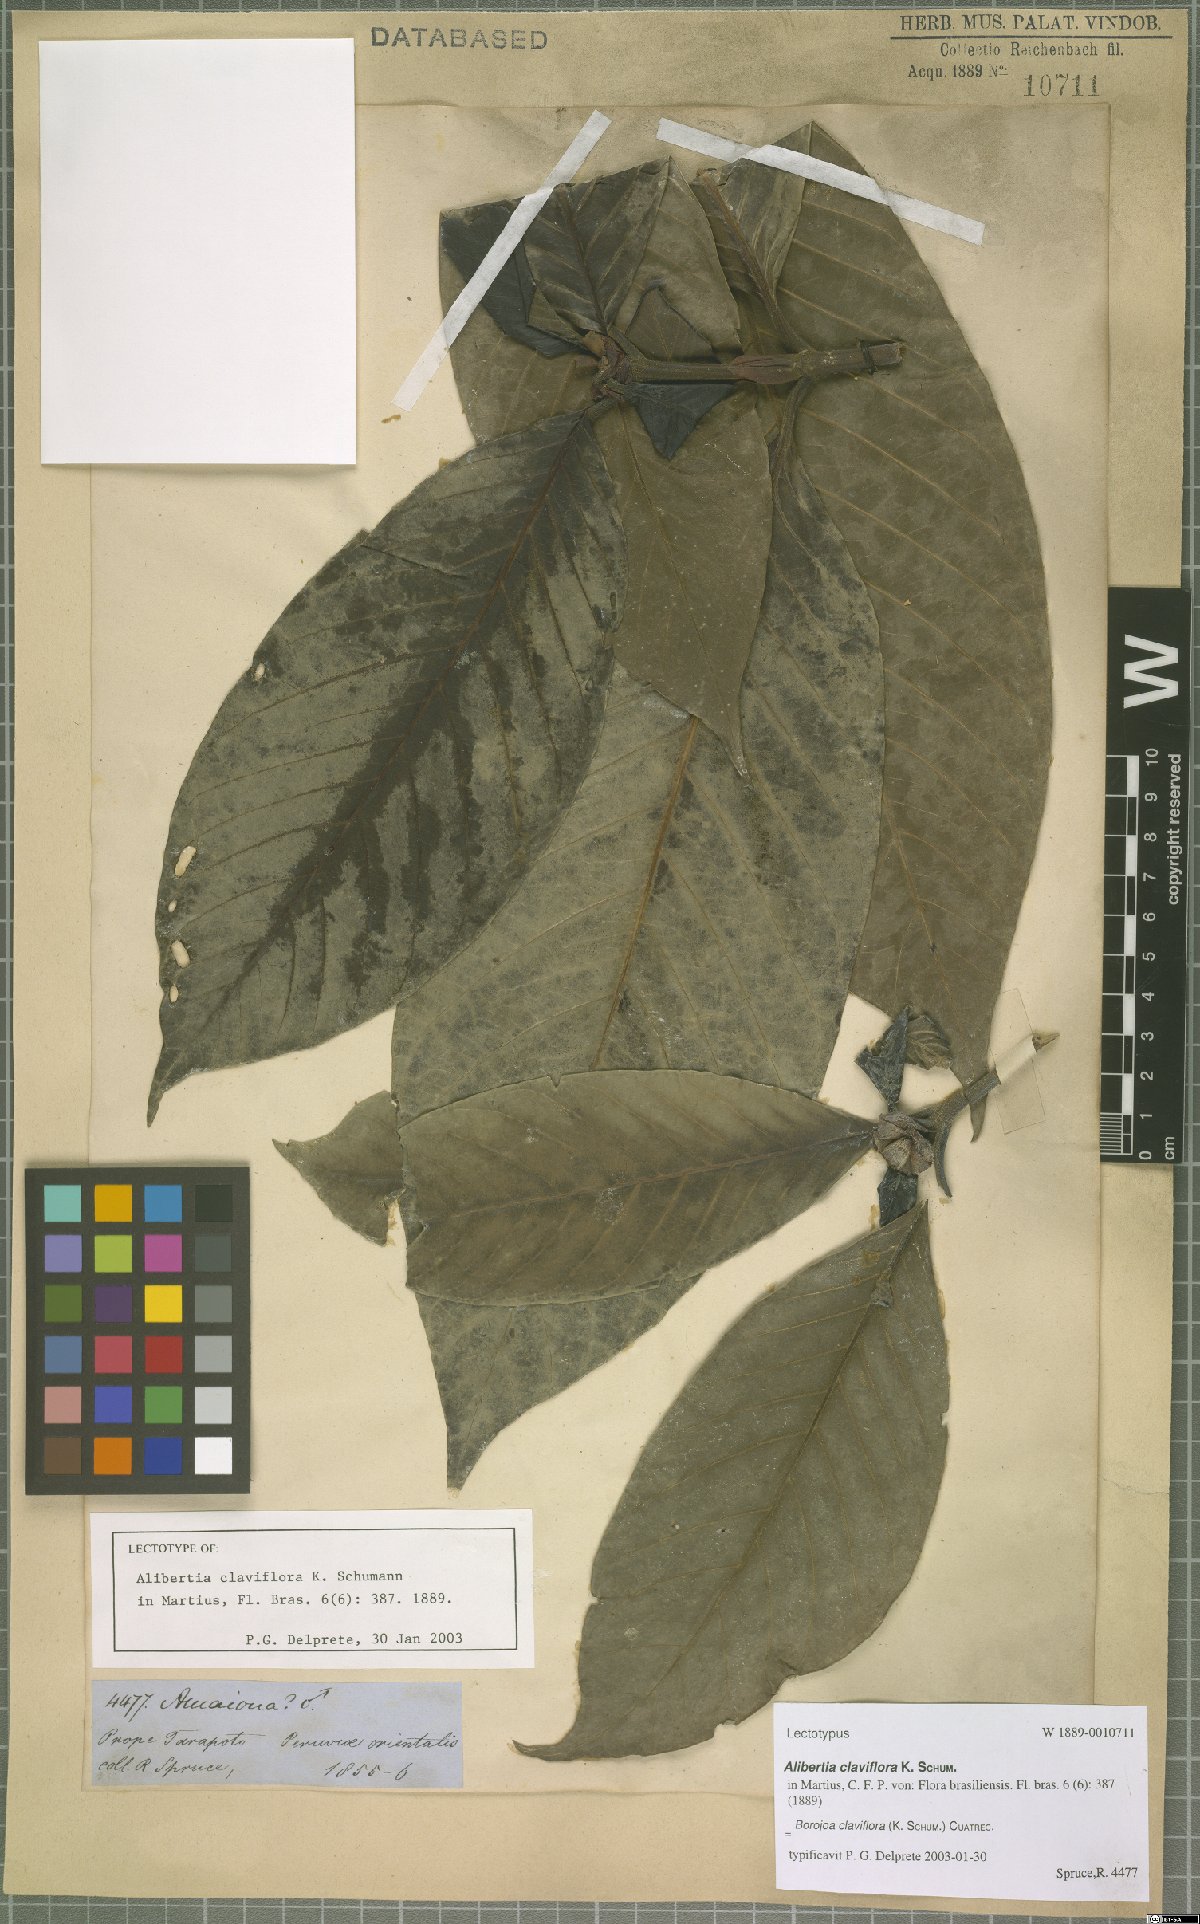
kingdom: Plantae
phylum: Tracheophyta
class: Magnoliopsida
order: Gentianales
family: Rubiaceae
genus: Alibertia
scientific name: Alibertia claviflora
